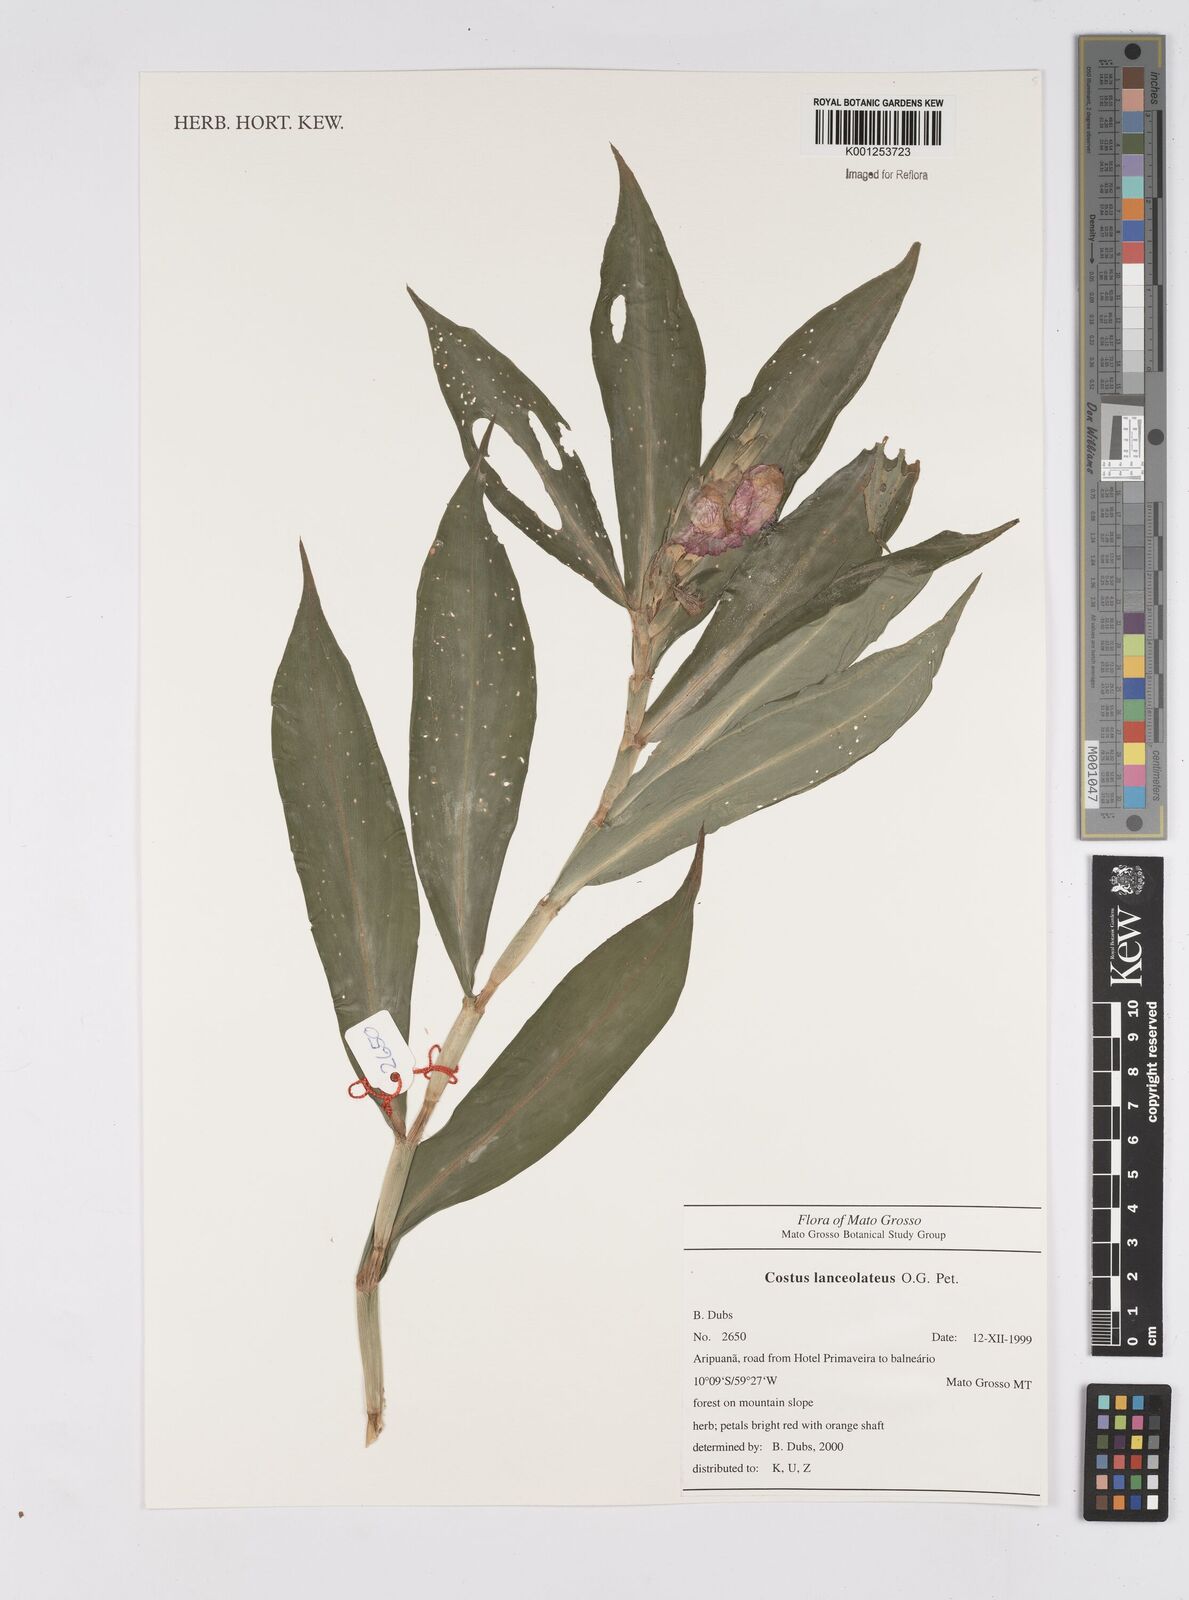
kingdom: Plantae
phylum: Tracheophyta
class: Liliopsida
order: Zingiberales
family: Costaceae
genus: Chamaecostus
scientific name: Chamaecostus lanceolatus
